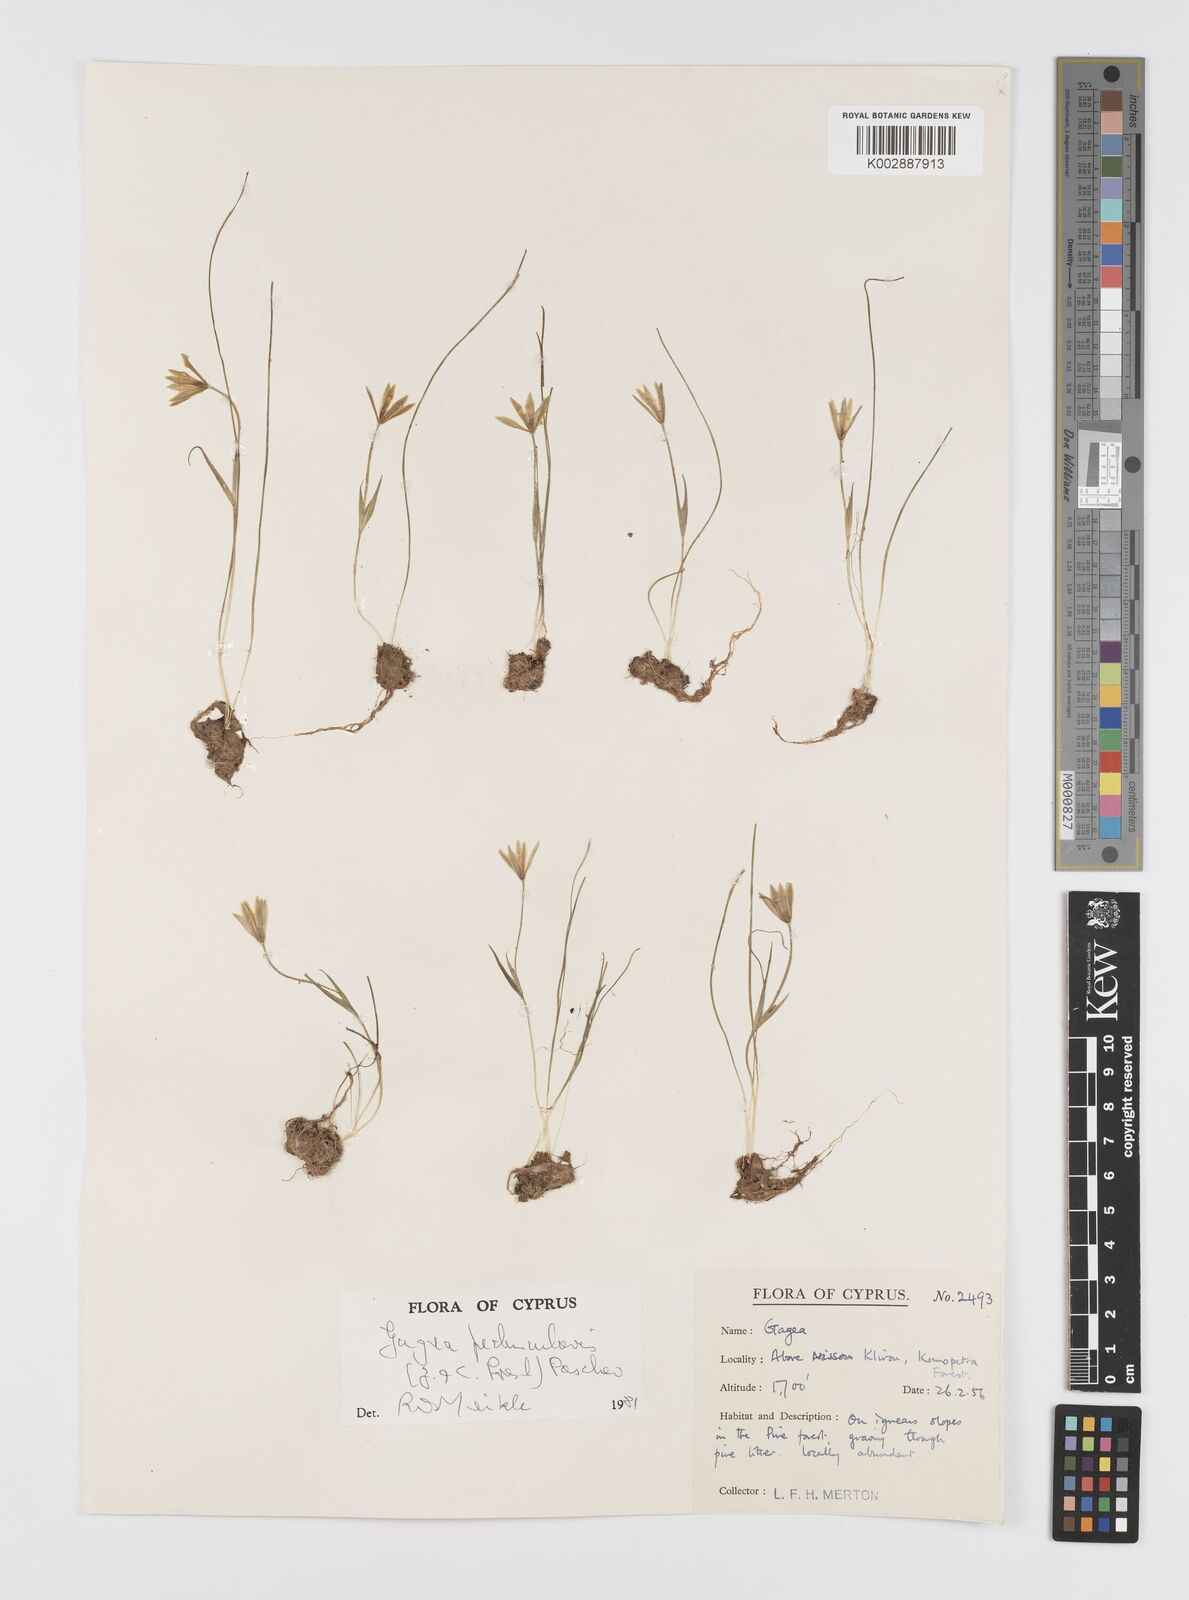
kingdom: Plantae
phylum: Tracheophyta
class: Liliopsida
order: Liliales
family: Liliaceae
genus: Gagea
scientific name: Gagea peduncularis
